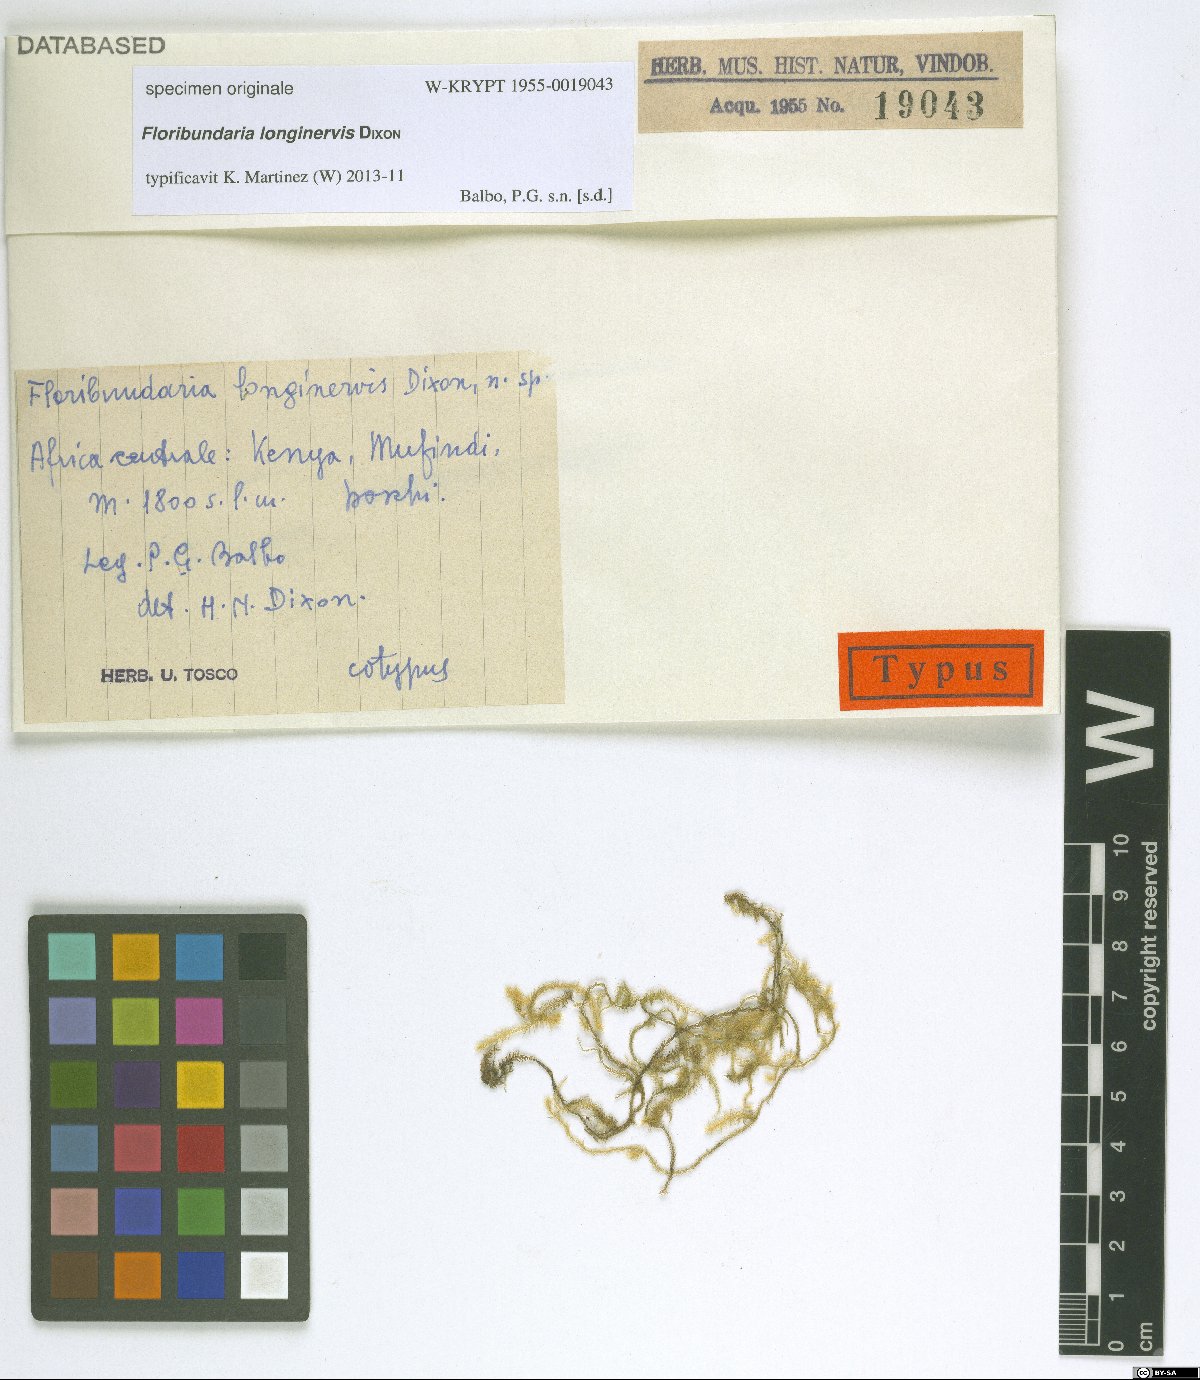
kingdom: Plantae
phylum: Bryophyta
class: Bryopsida
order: Hypnales
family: Meteoriaceae
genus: Floribundaria
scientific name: Floribundaria
